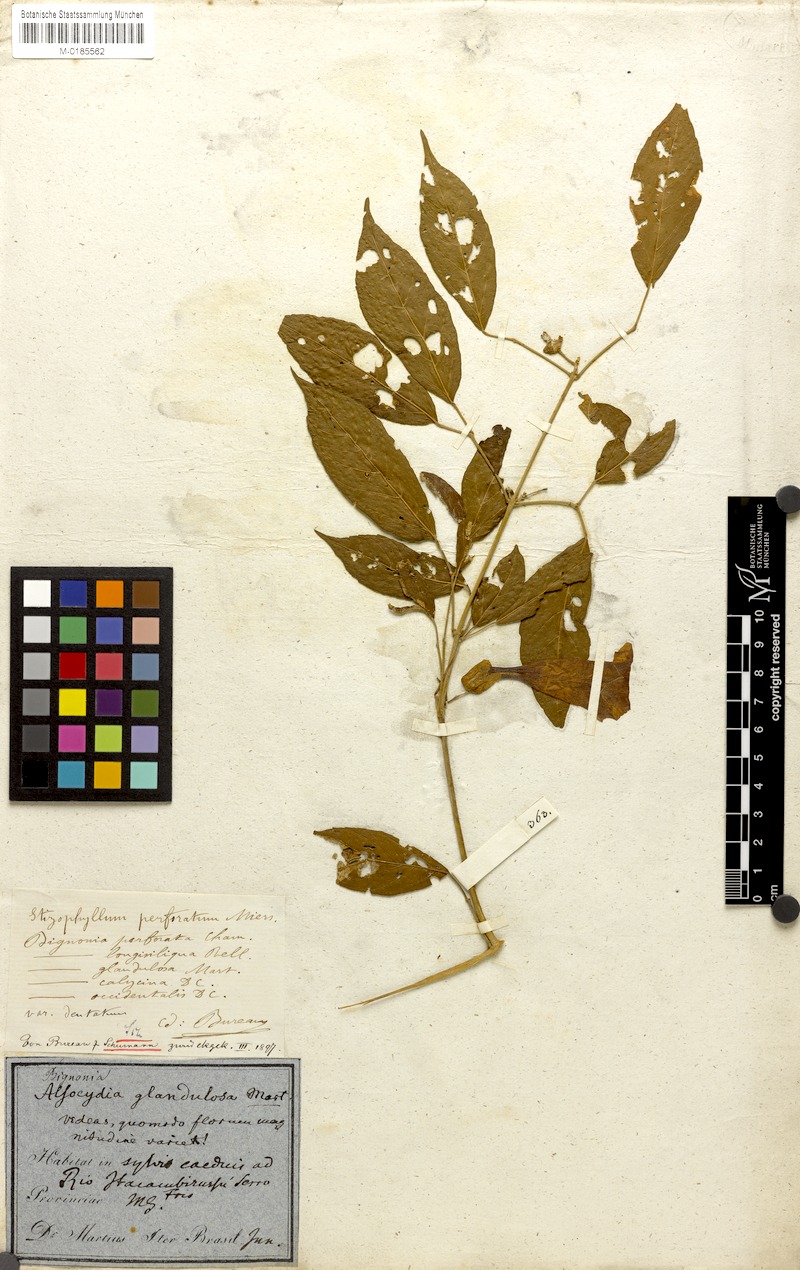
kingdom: Plantae
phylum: Tracheophyta
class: Magnoliopsida
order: Lamiales
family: Bignoniaceae
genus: Stizophyllum
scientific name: Stizophyllum perforatum
